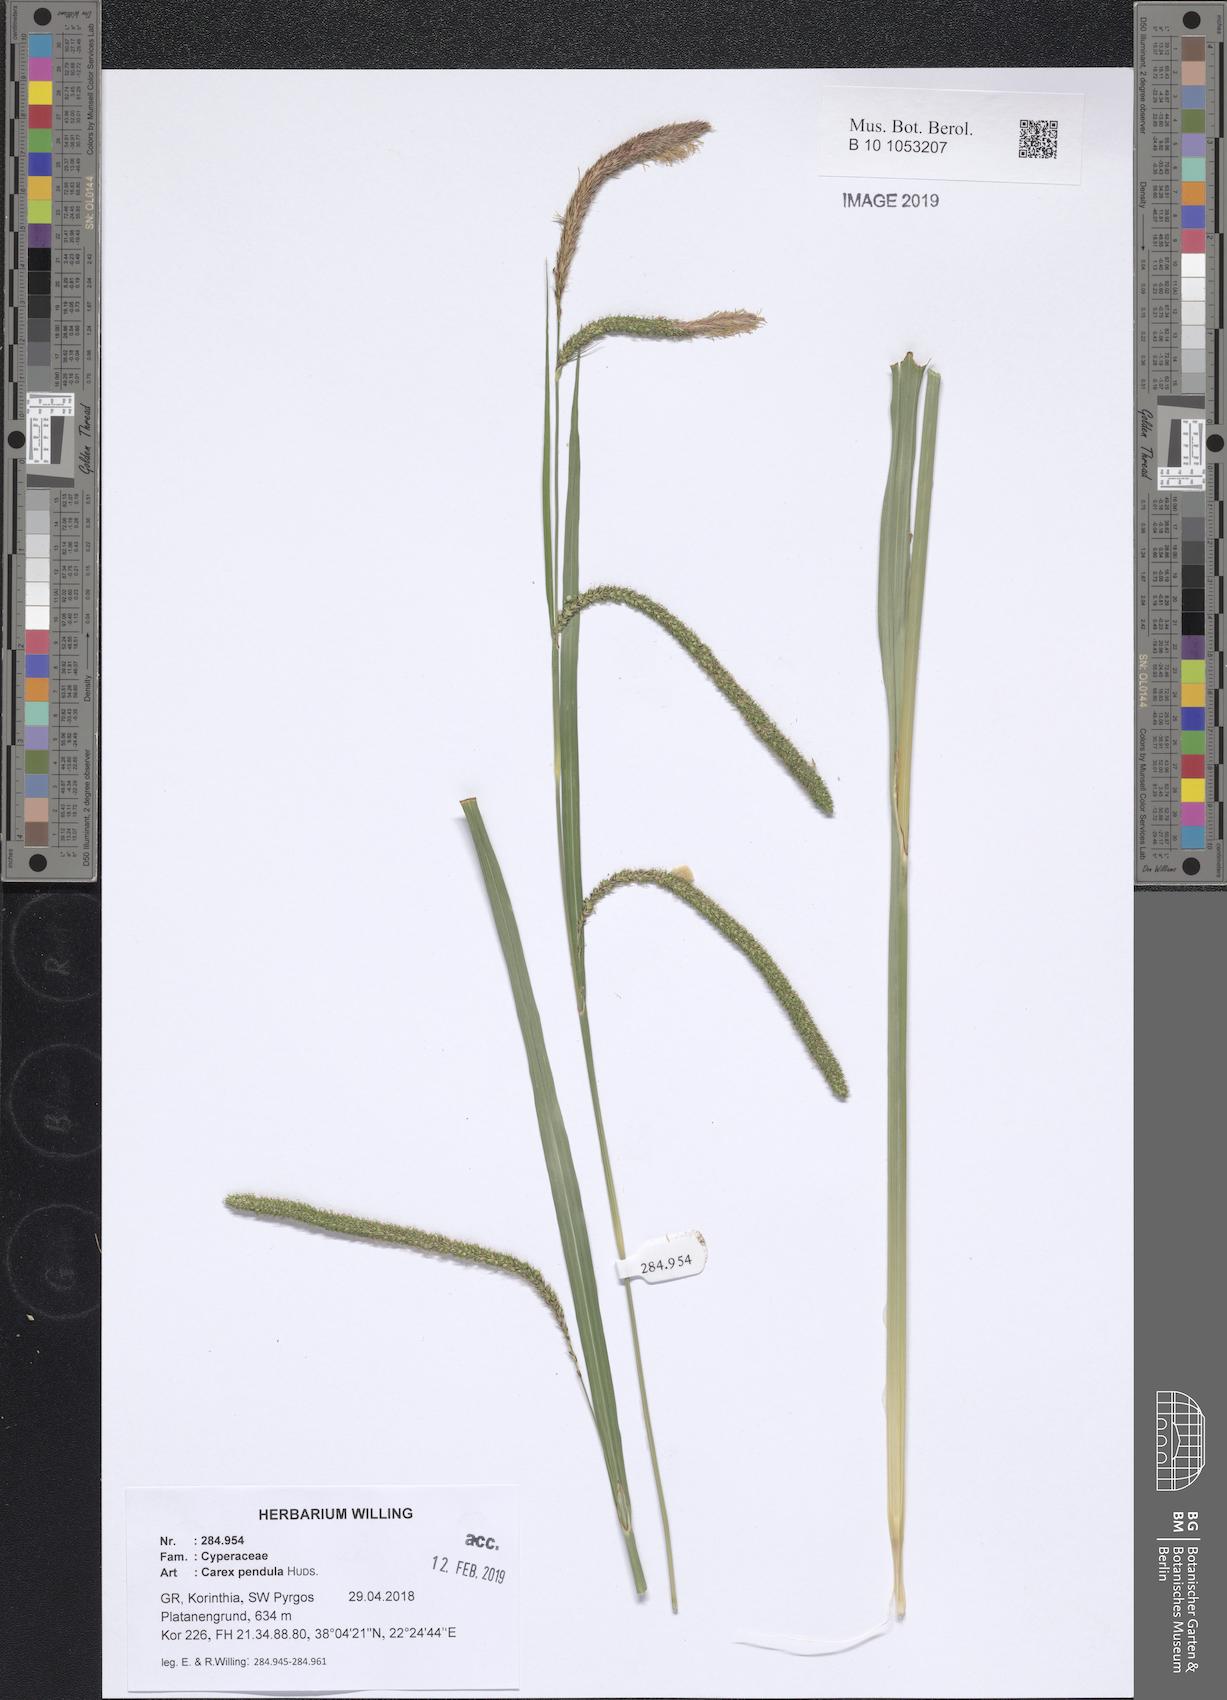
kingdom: Plantae
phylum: Tracheophyta
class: Liliopsida
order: Poales
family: Cyperaceae
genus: Carex
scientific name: Carex pendula
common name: Pendulous sedge
